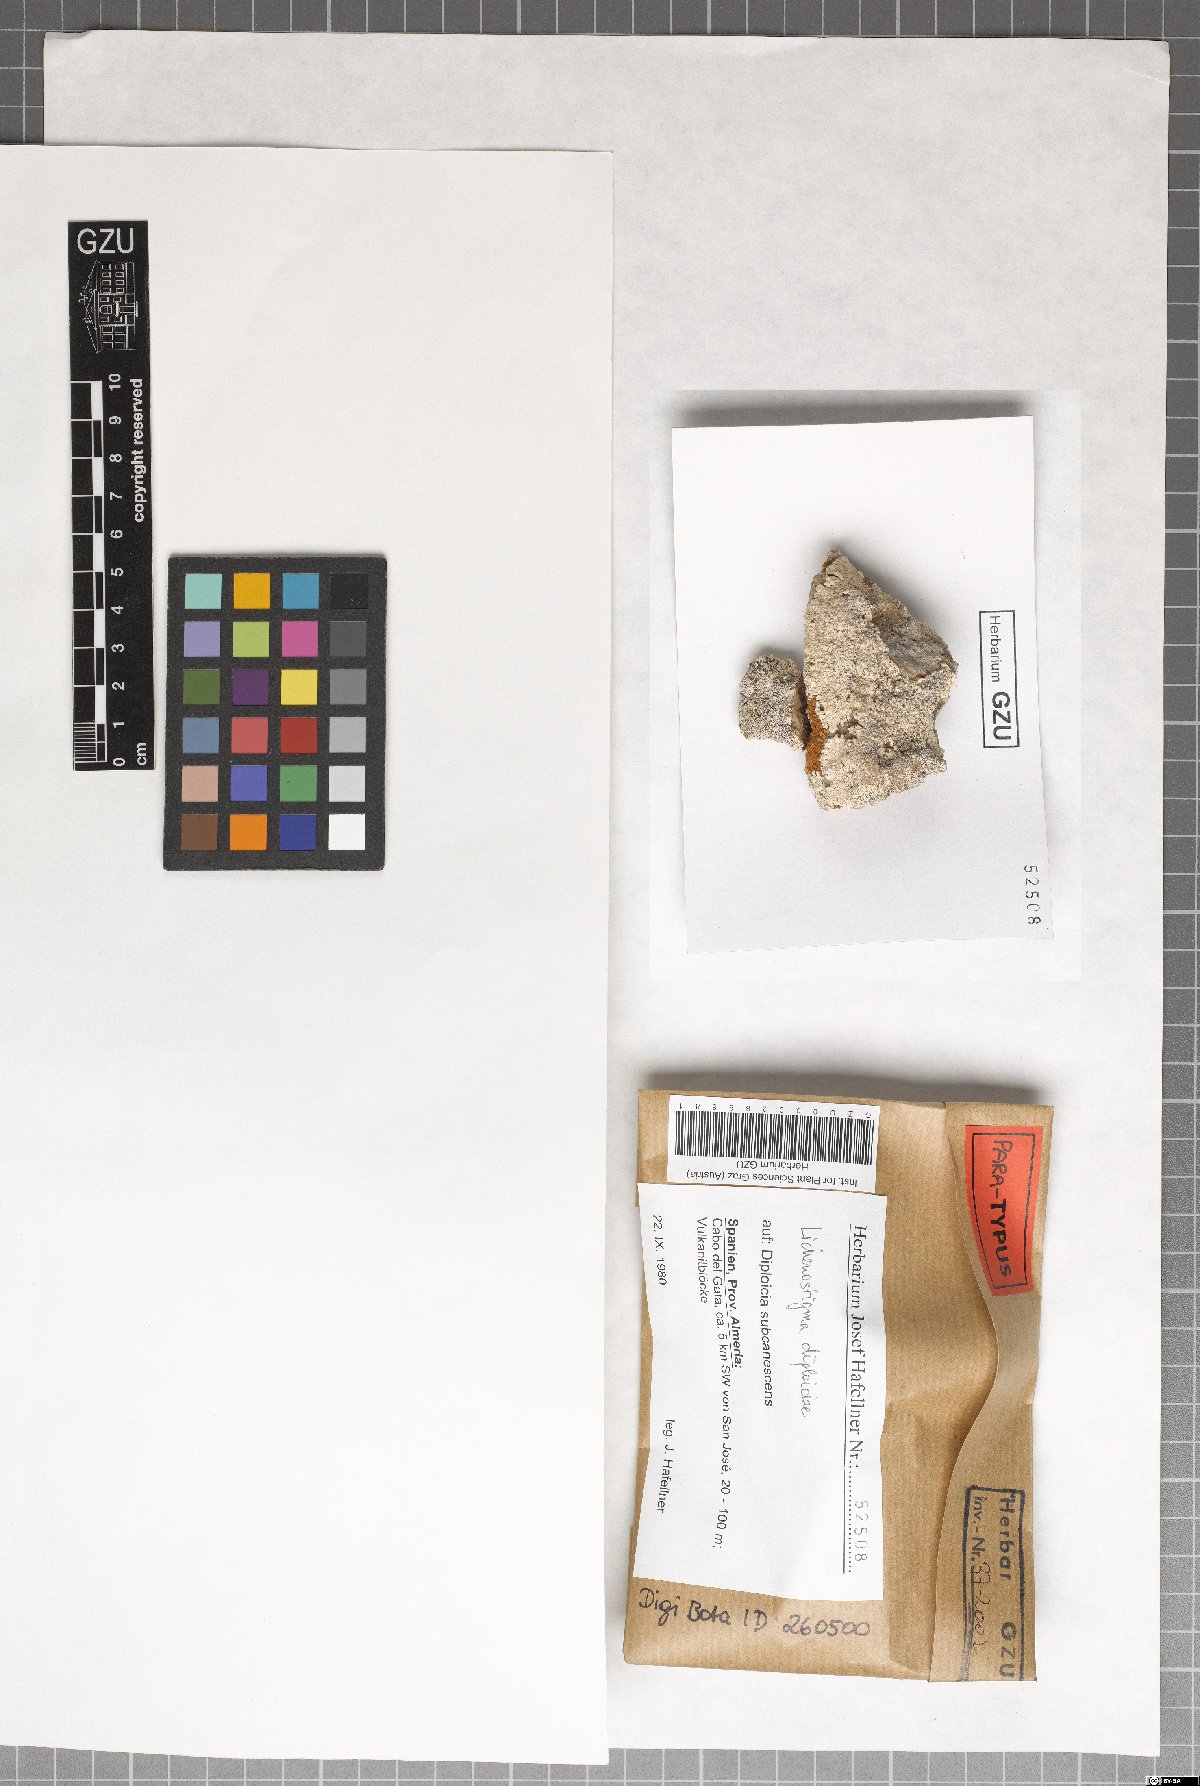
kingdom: Fungi
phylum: Ascomycota
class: Dothideomycetes
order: Lichenotheliales
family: Lichenotheliaceae
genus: Lichenostigma
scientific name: Lichenostigma dipliociae
